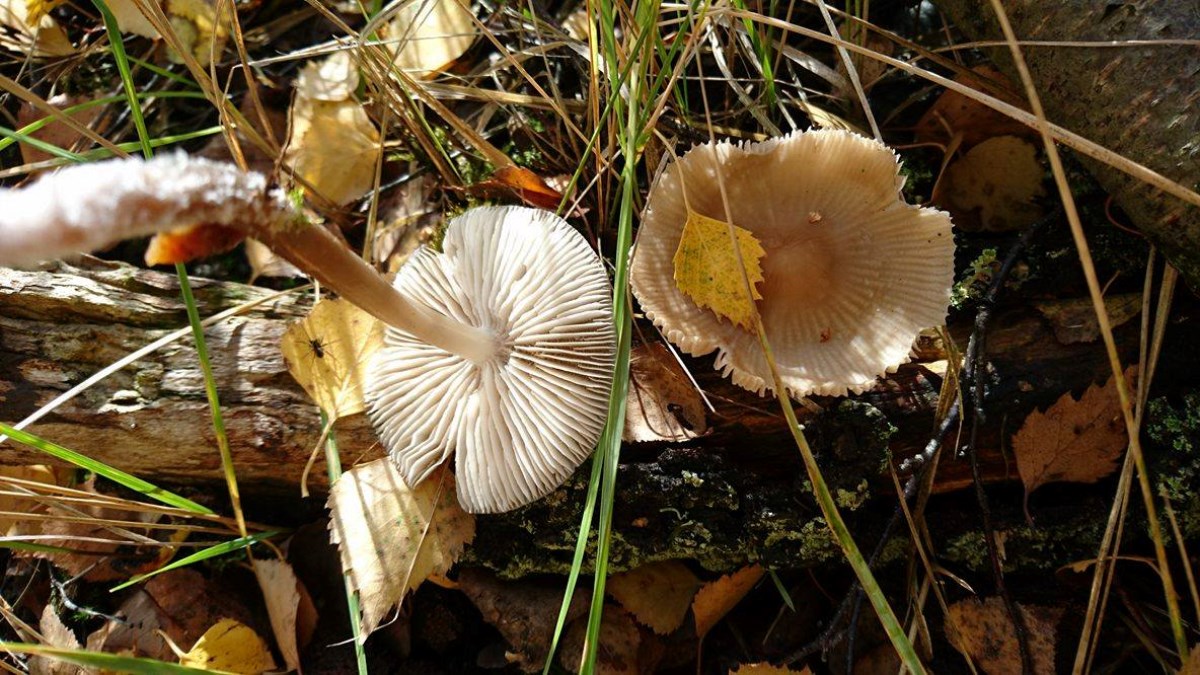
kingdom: Fungi
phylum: Basidiomycota
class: Agaricomycetes
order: Agaricales
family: Mycenaceae
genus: Mycena
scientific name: Mycena galericulata
